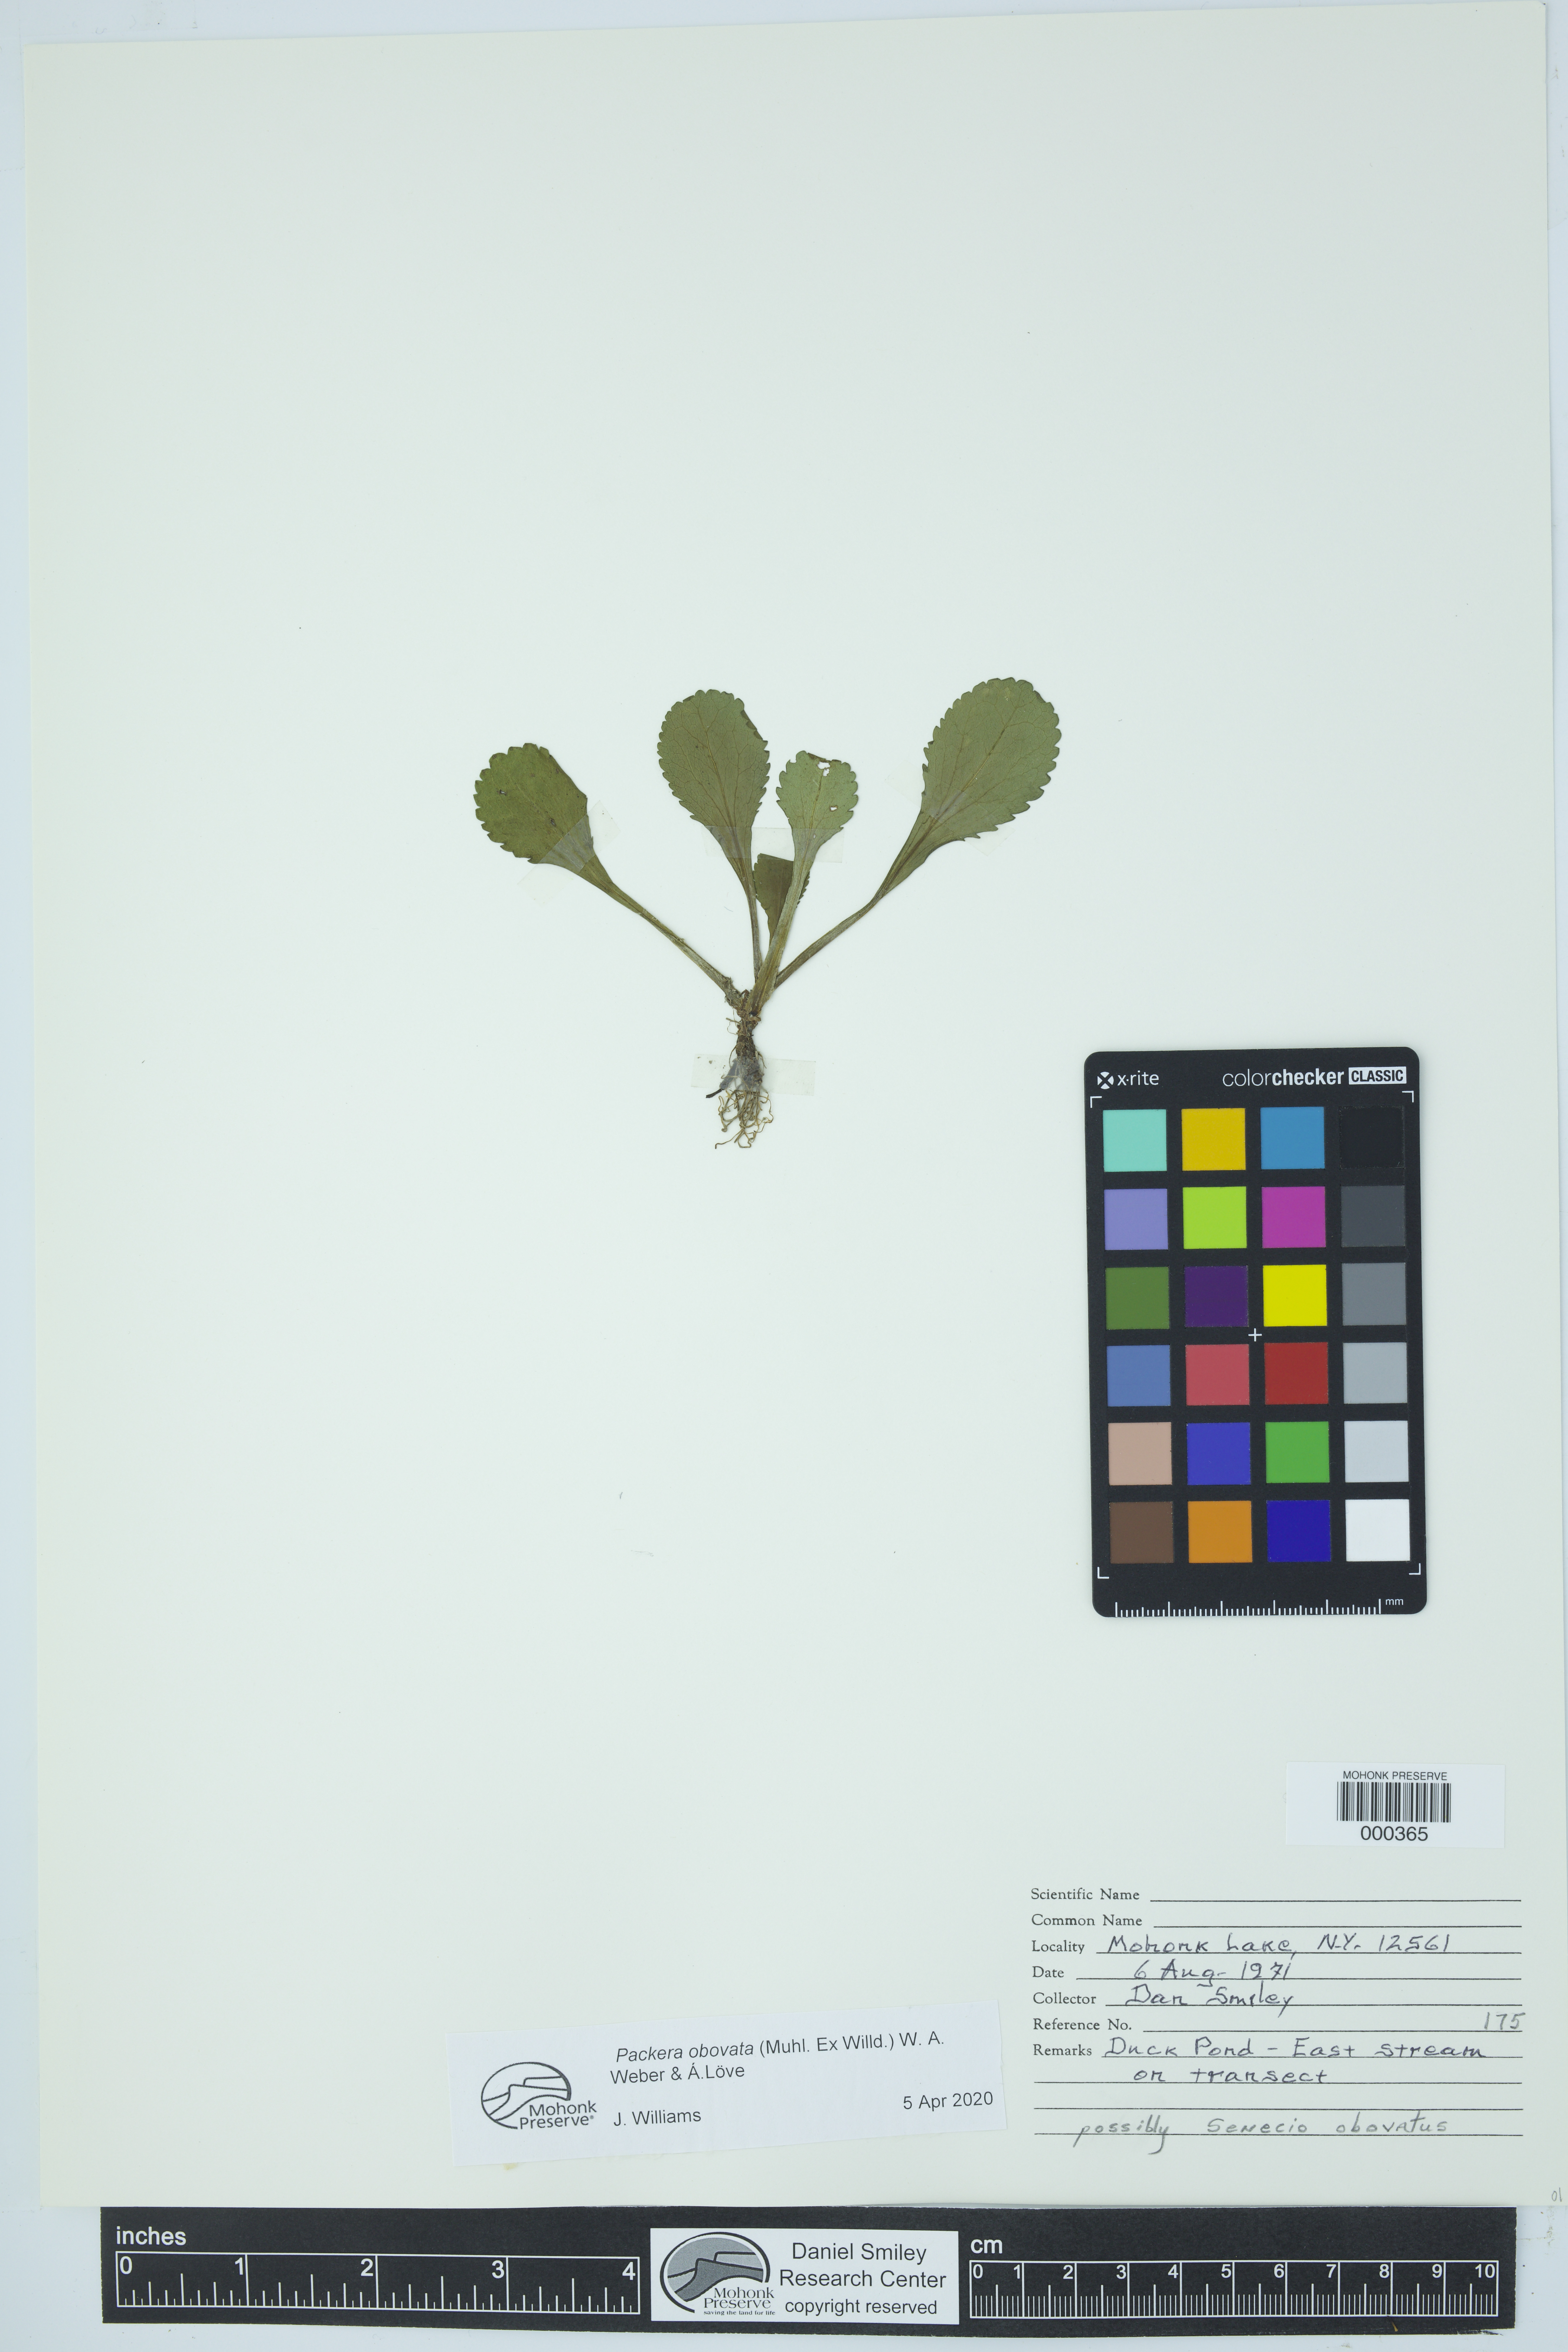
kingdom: Plantae
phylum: Tracheophyta
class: Magnoliopsida
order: Asterales
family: Asteraceae
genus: Packera
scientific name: Packera obovata
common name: Round-leaf ragwort
